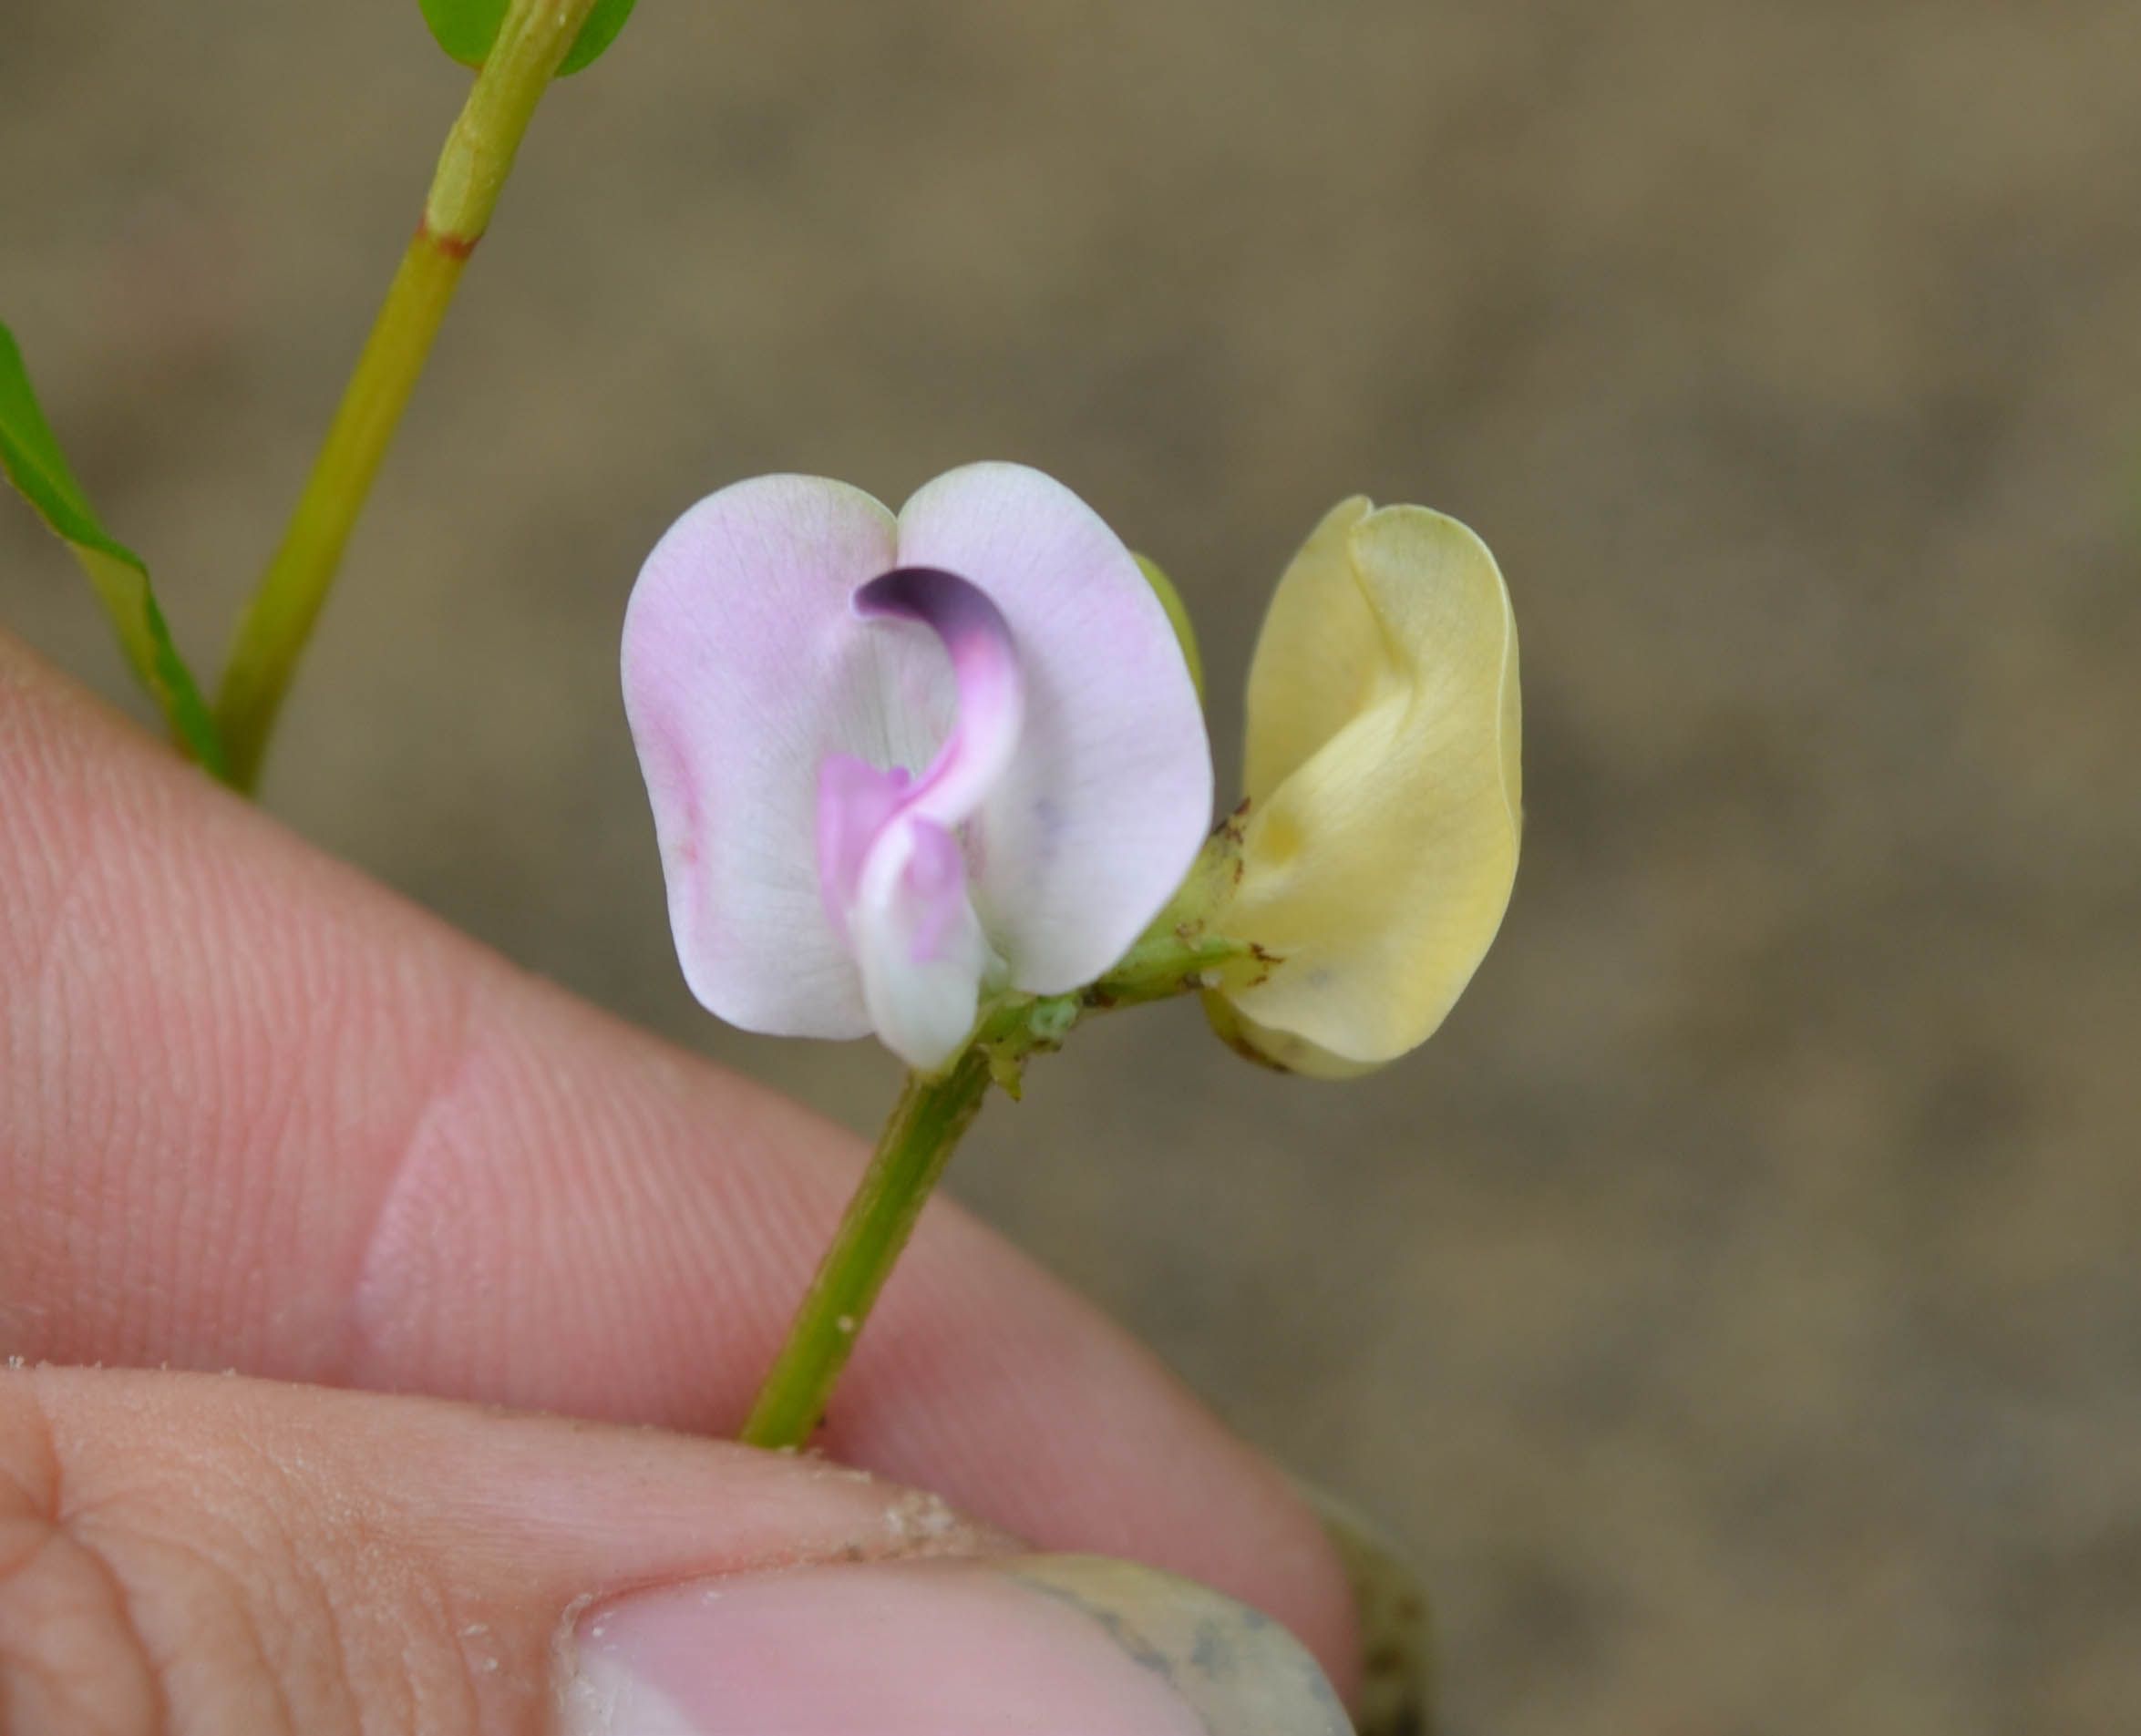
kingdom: Plantae
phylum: Tracheophyta
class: Magnoliopsida
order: Fabales
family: Fabaceae
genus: Strophostyles
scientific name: Strophostyles helvola
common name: Trailing wild bean
